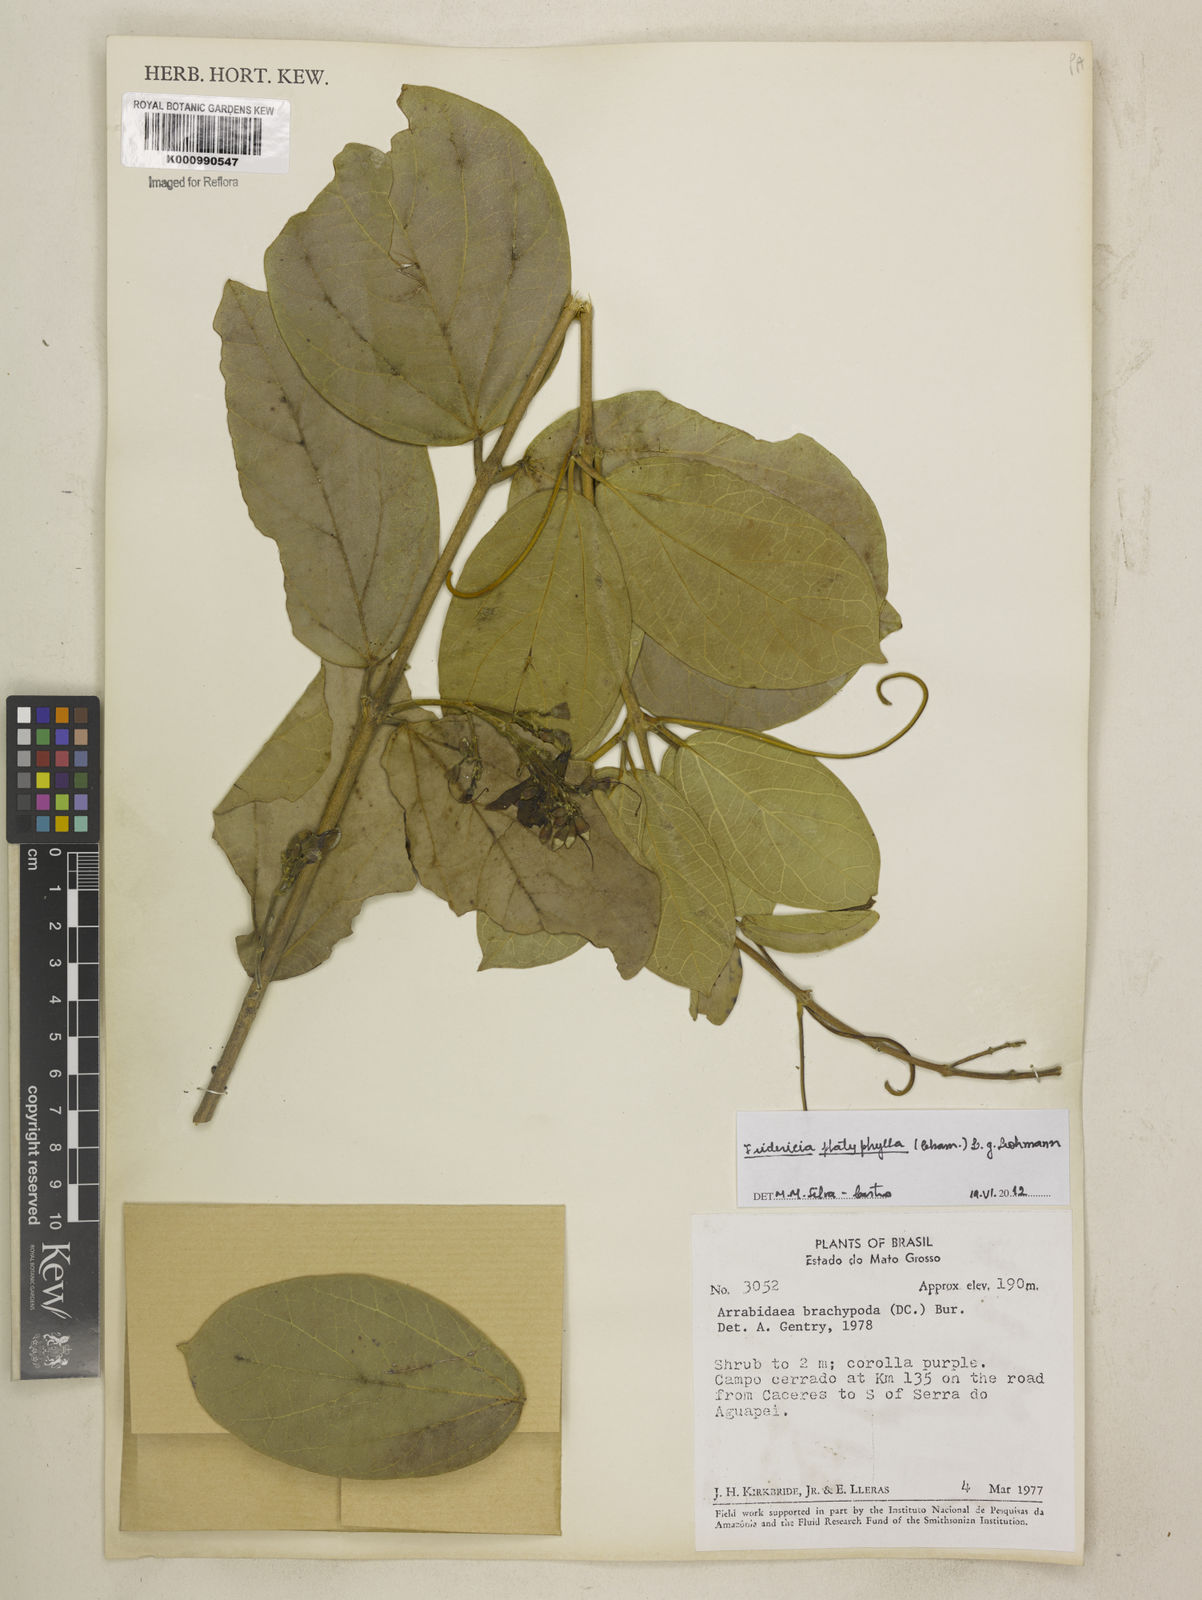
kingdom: Plantae
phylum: Tracheophyta
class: Magnoliopsida
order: Lamiales
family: Bignoniaceae
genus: Fridericia
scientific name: Fridericia platyphylla
